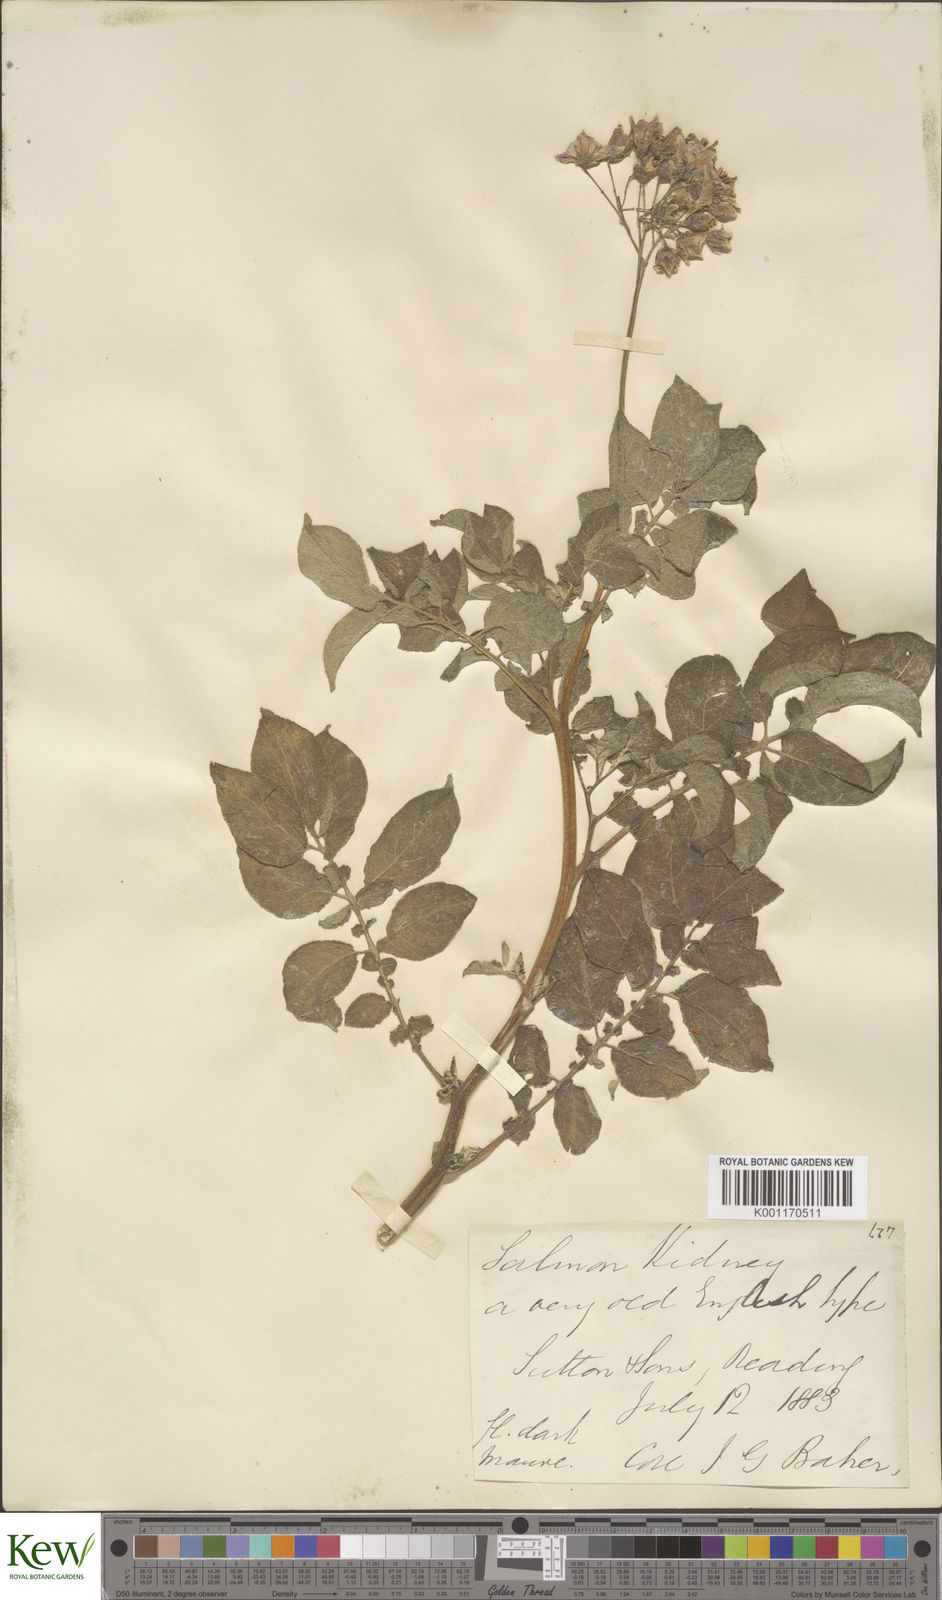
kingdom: Plantae
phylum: Tracheophyta
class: Magnoliopsida
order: Solanales
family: Solanaceae
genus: Solanum
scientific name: Solanum tuberosum
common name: Potato
